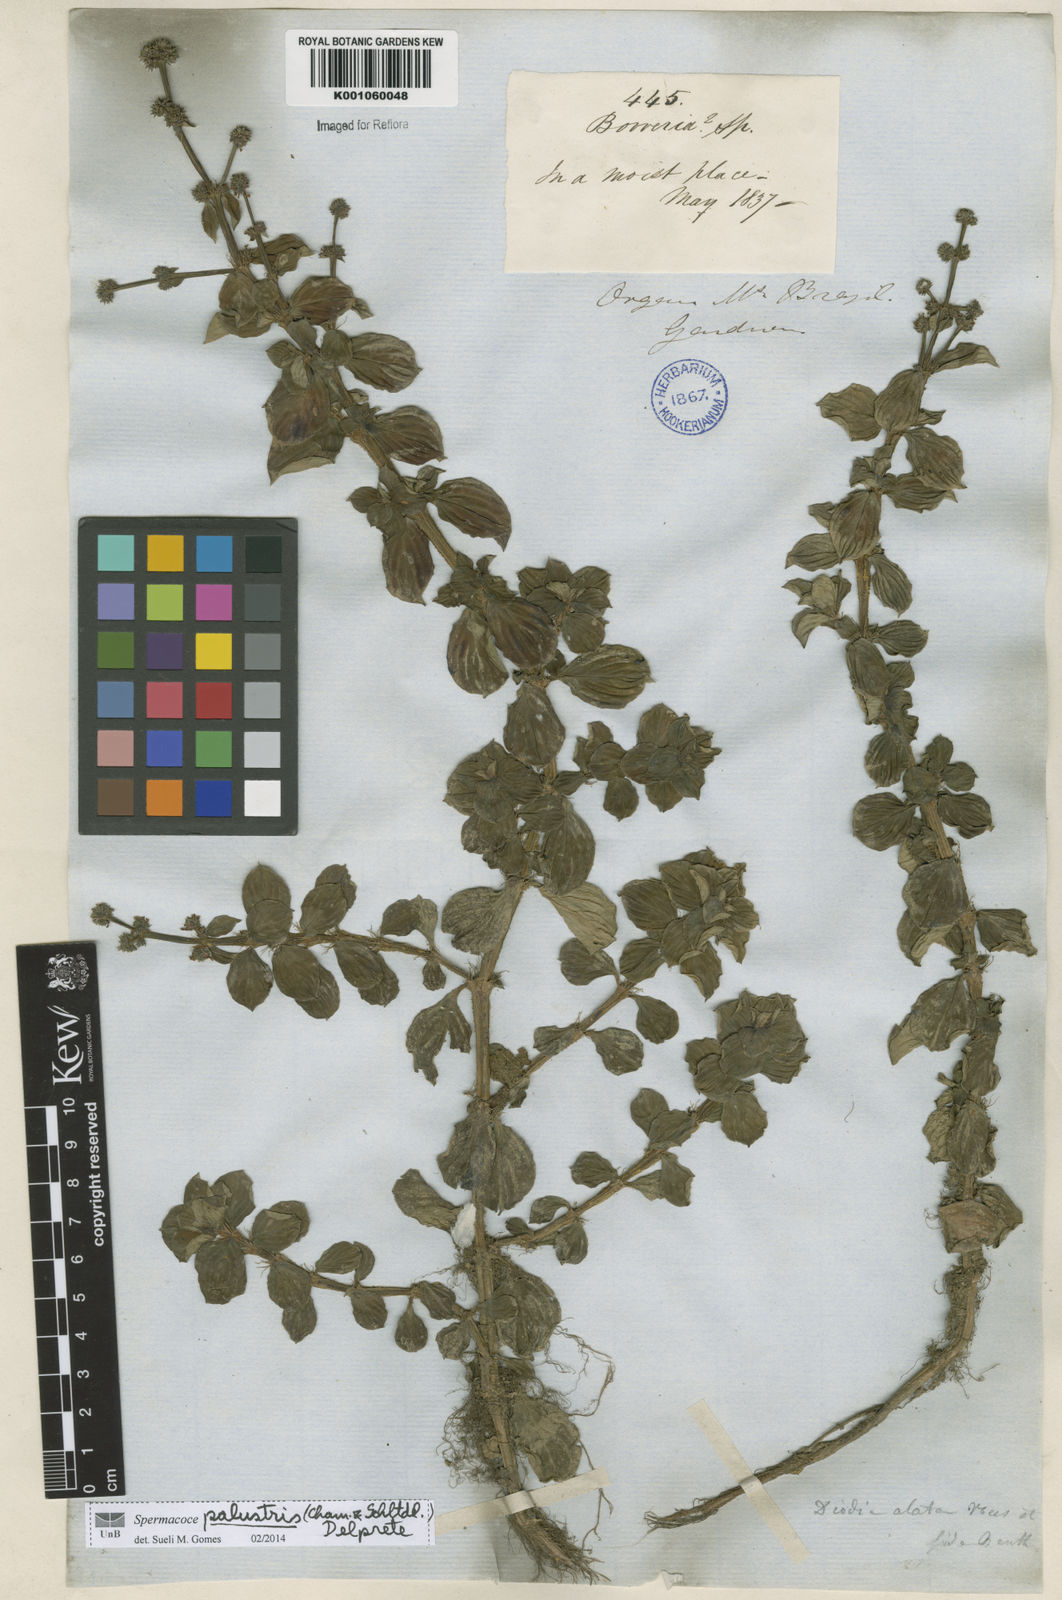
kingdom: Plantae
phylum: Tracheophyta
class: Magnoliopsida
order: Gentianales
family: Rubiaceae
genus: Galianthe
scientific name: Galianthe palustris
